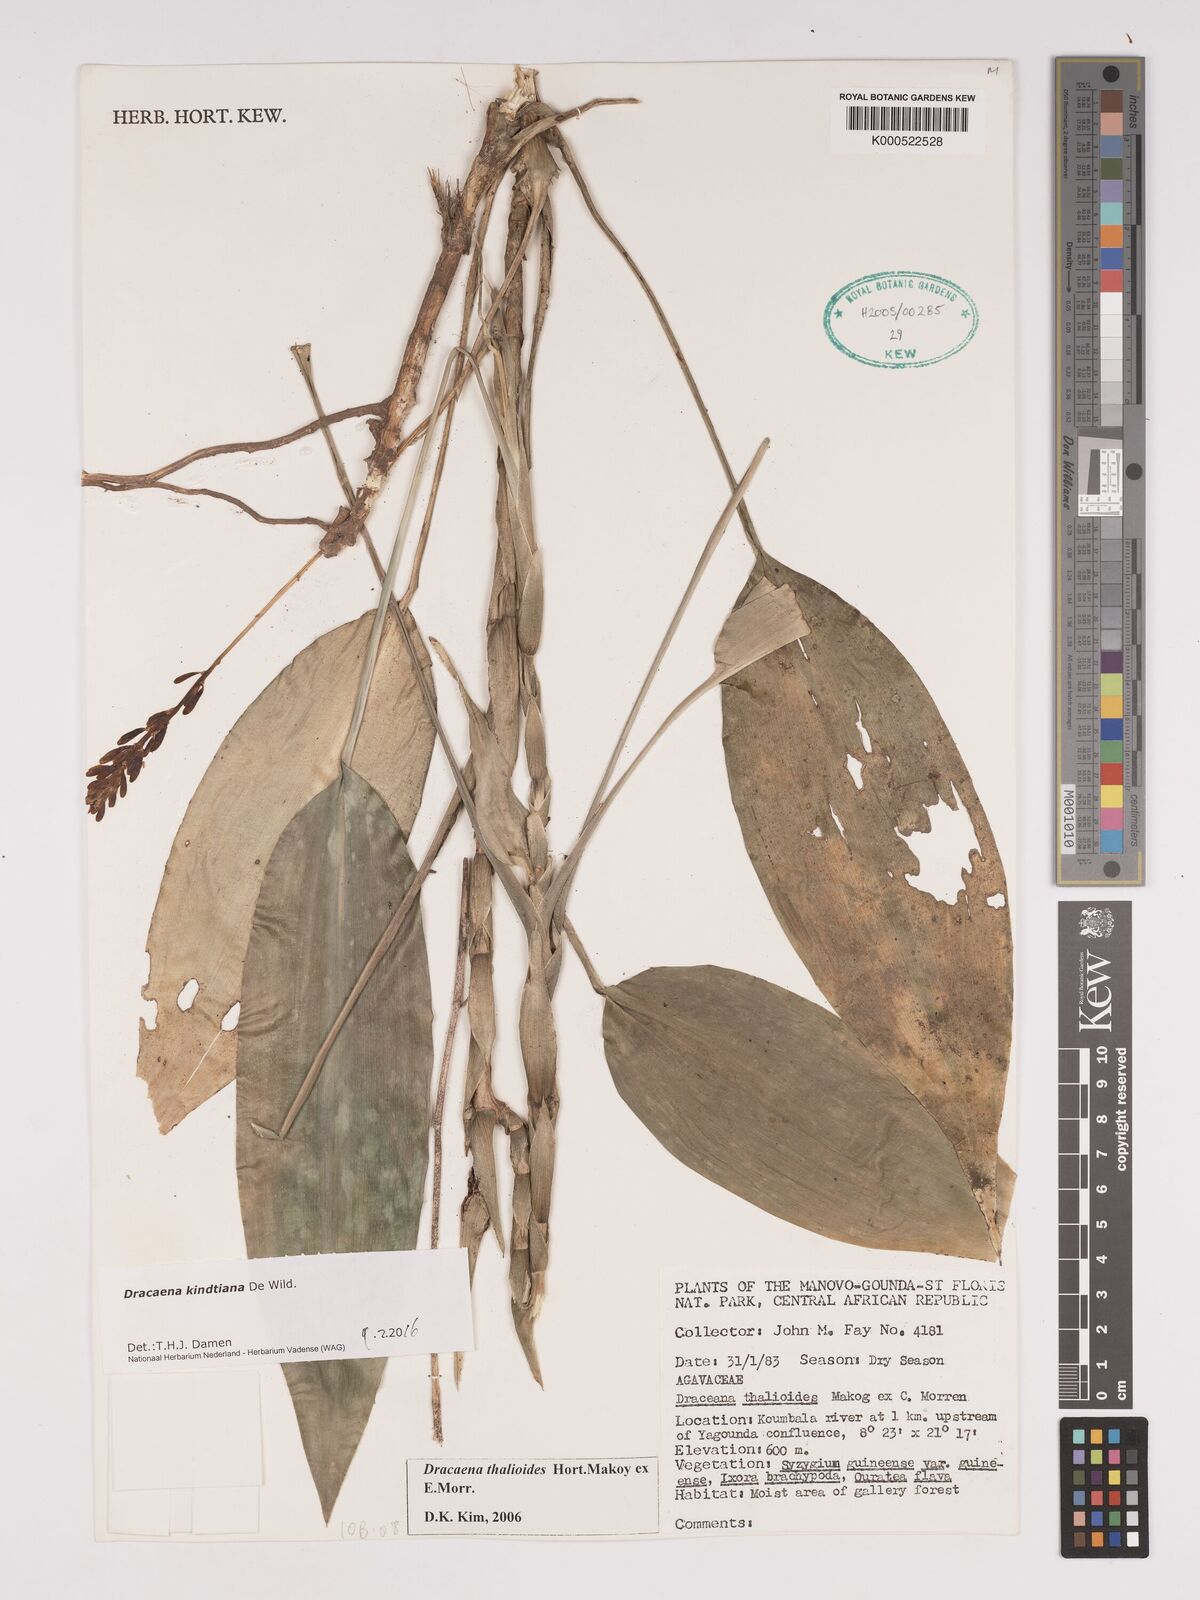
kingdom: Plantae
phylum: Tracheophyta
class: Liliopsida
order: Asparagales
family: Asparagaceae
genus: Dracaena
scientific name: Dracaena kindtiana
